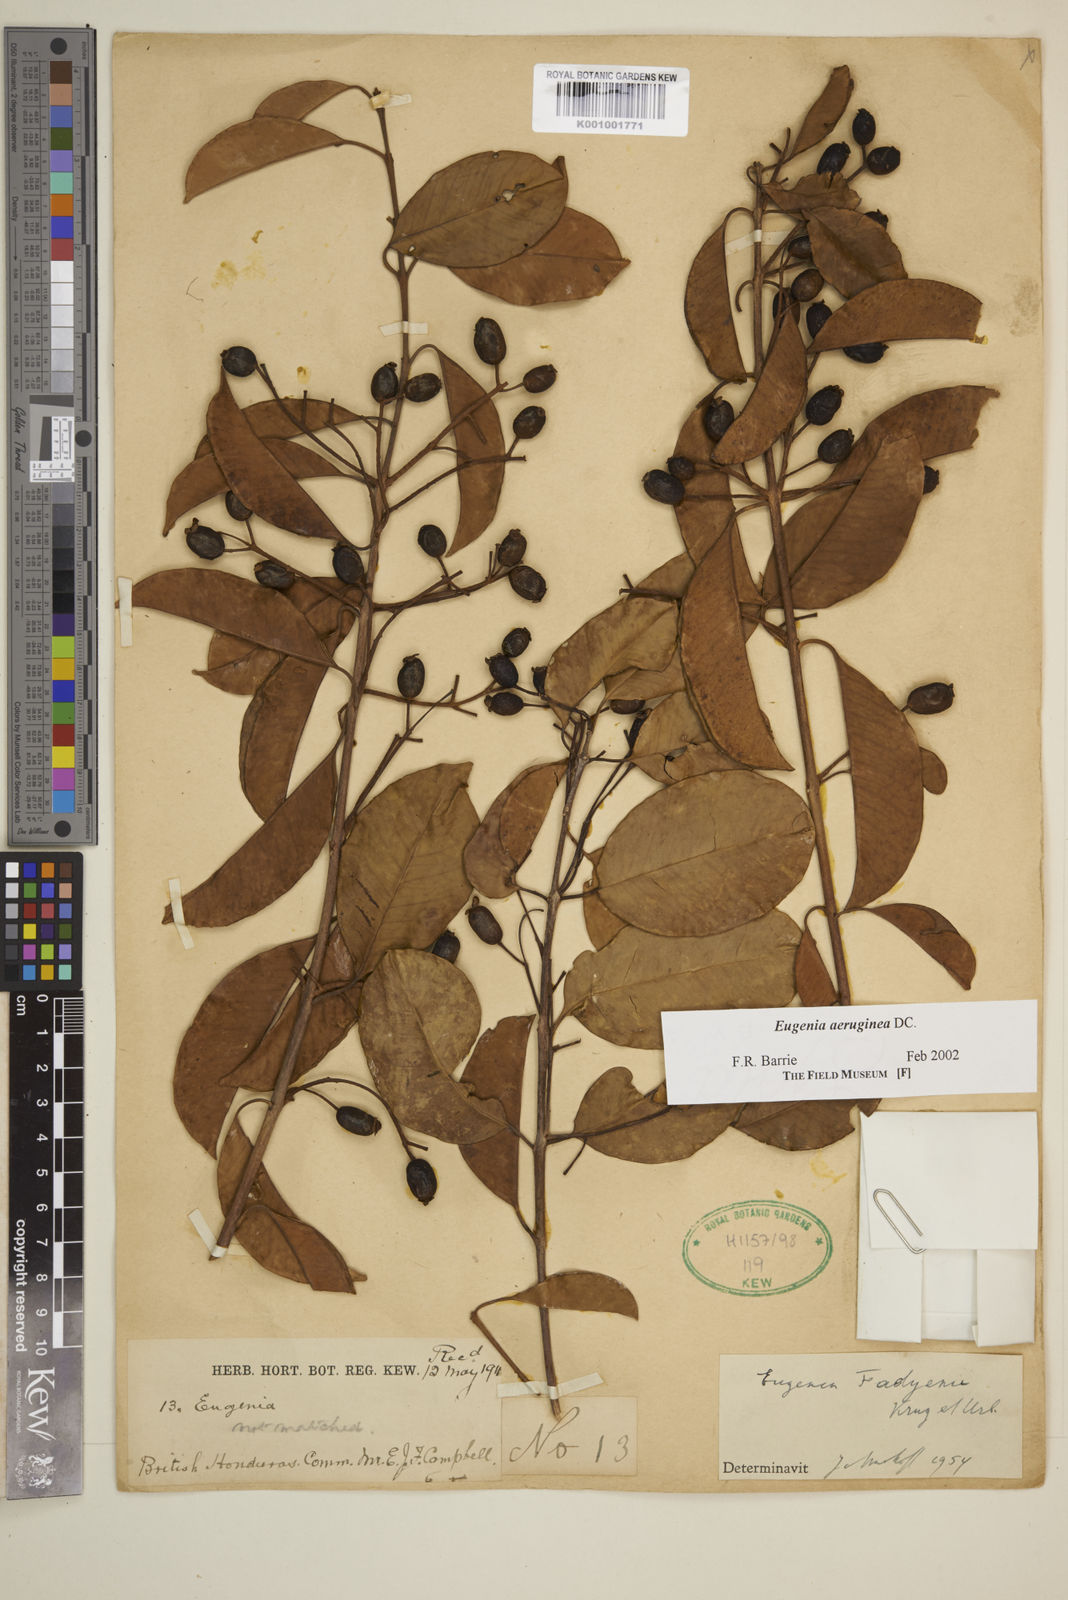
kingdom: Plantae
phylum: Tracheophyta
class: Magnoliopsida
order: Myrtales
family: Myrtaceae
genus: Eugenia
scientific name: Eugenia aeruginea
